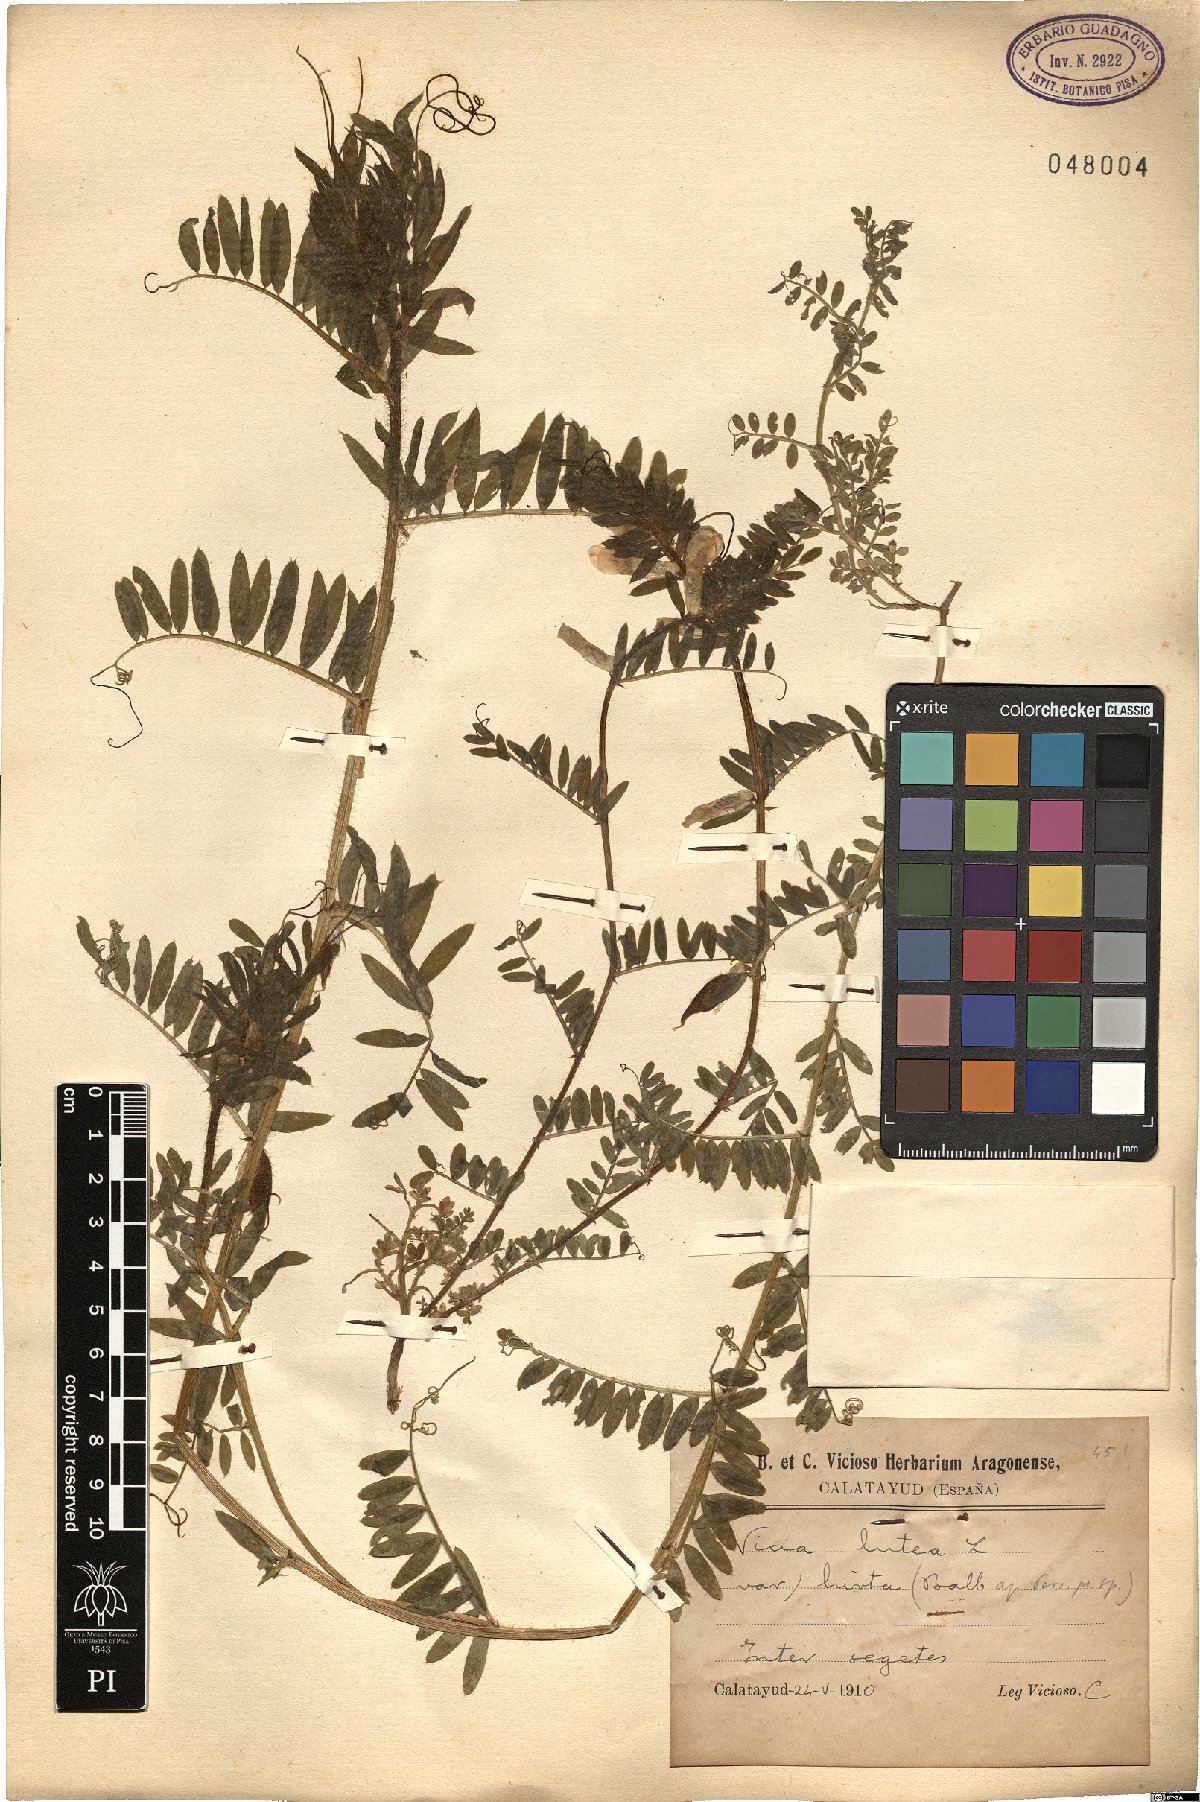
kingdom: Plantae
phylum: Tracheophyta
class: Magnoliopsida
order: Fabales
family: Fabaceae
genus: Vicia
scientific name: Vicia lutea
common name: Smooth yellow vetch
